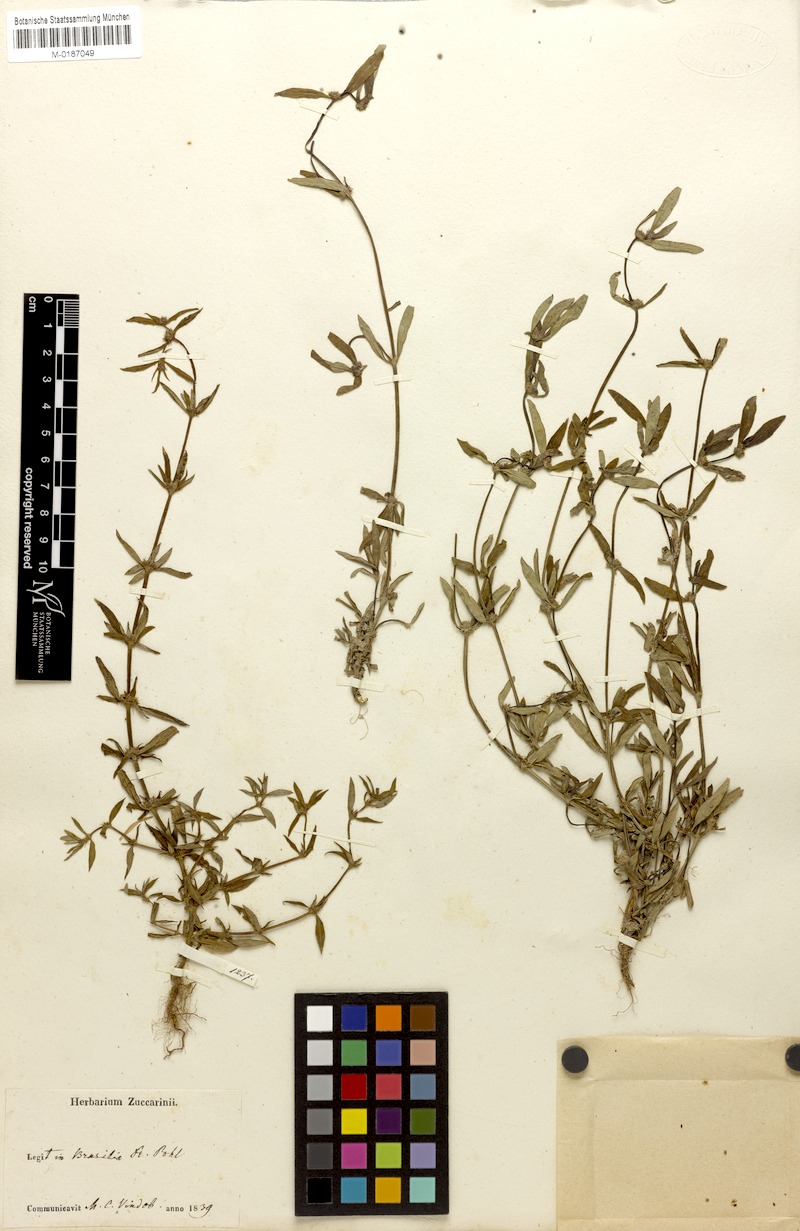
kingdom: Plantae
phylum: Tracheophyta
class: Magnoliopsida
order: Gentianales
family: Rubiaceae
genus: Spermacoce
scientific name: Spermacoce prostrata
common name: Prostrate false buttonweed
